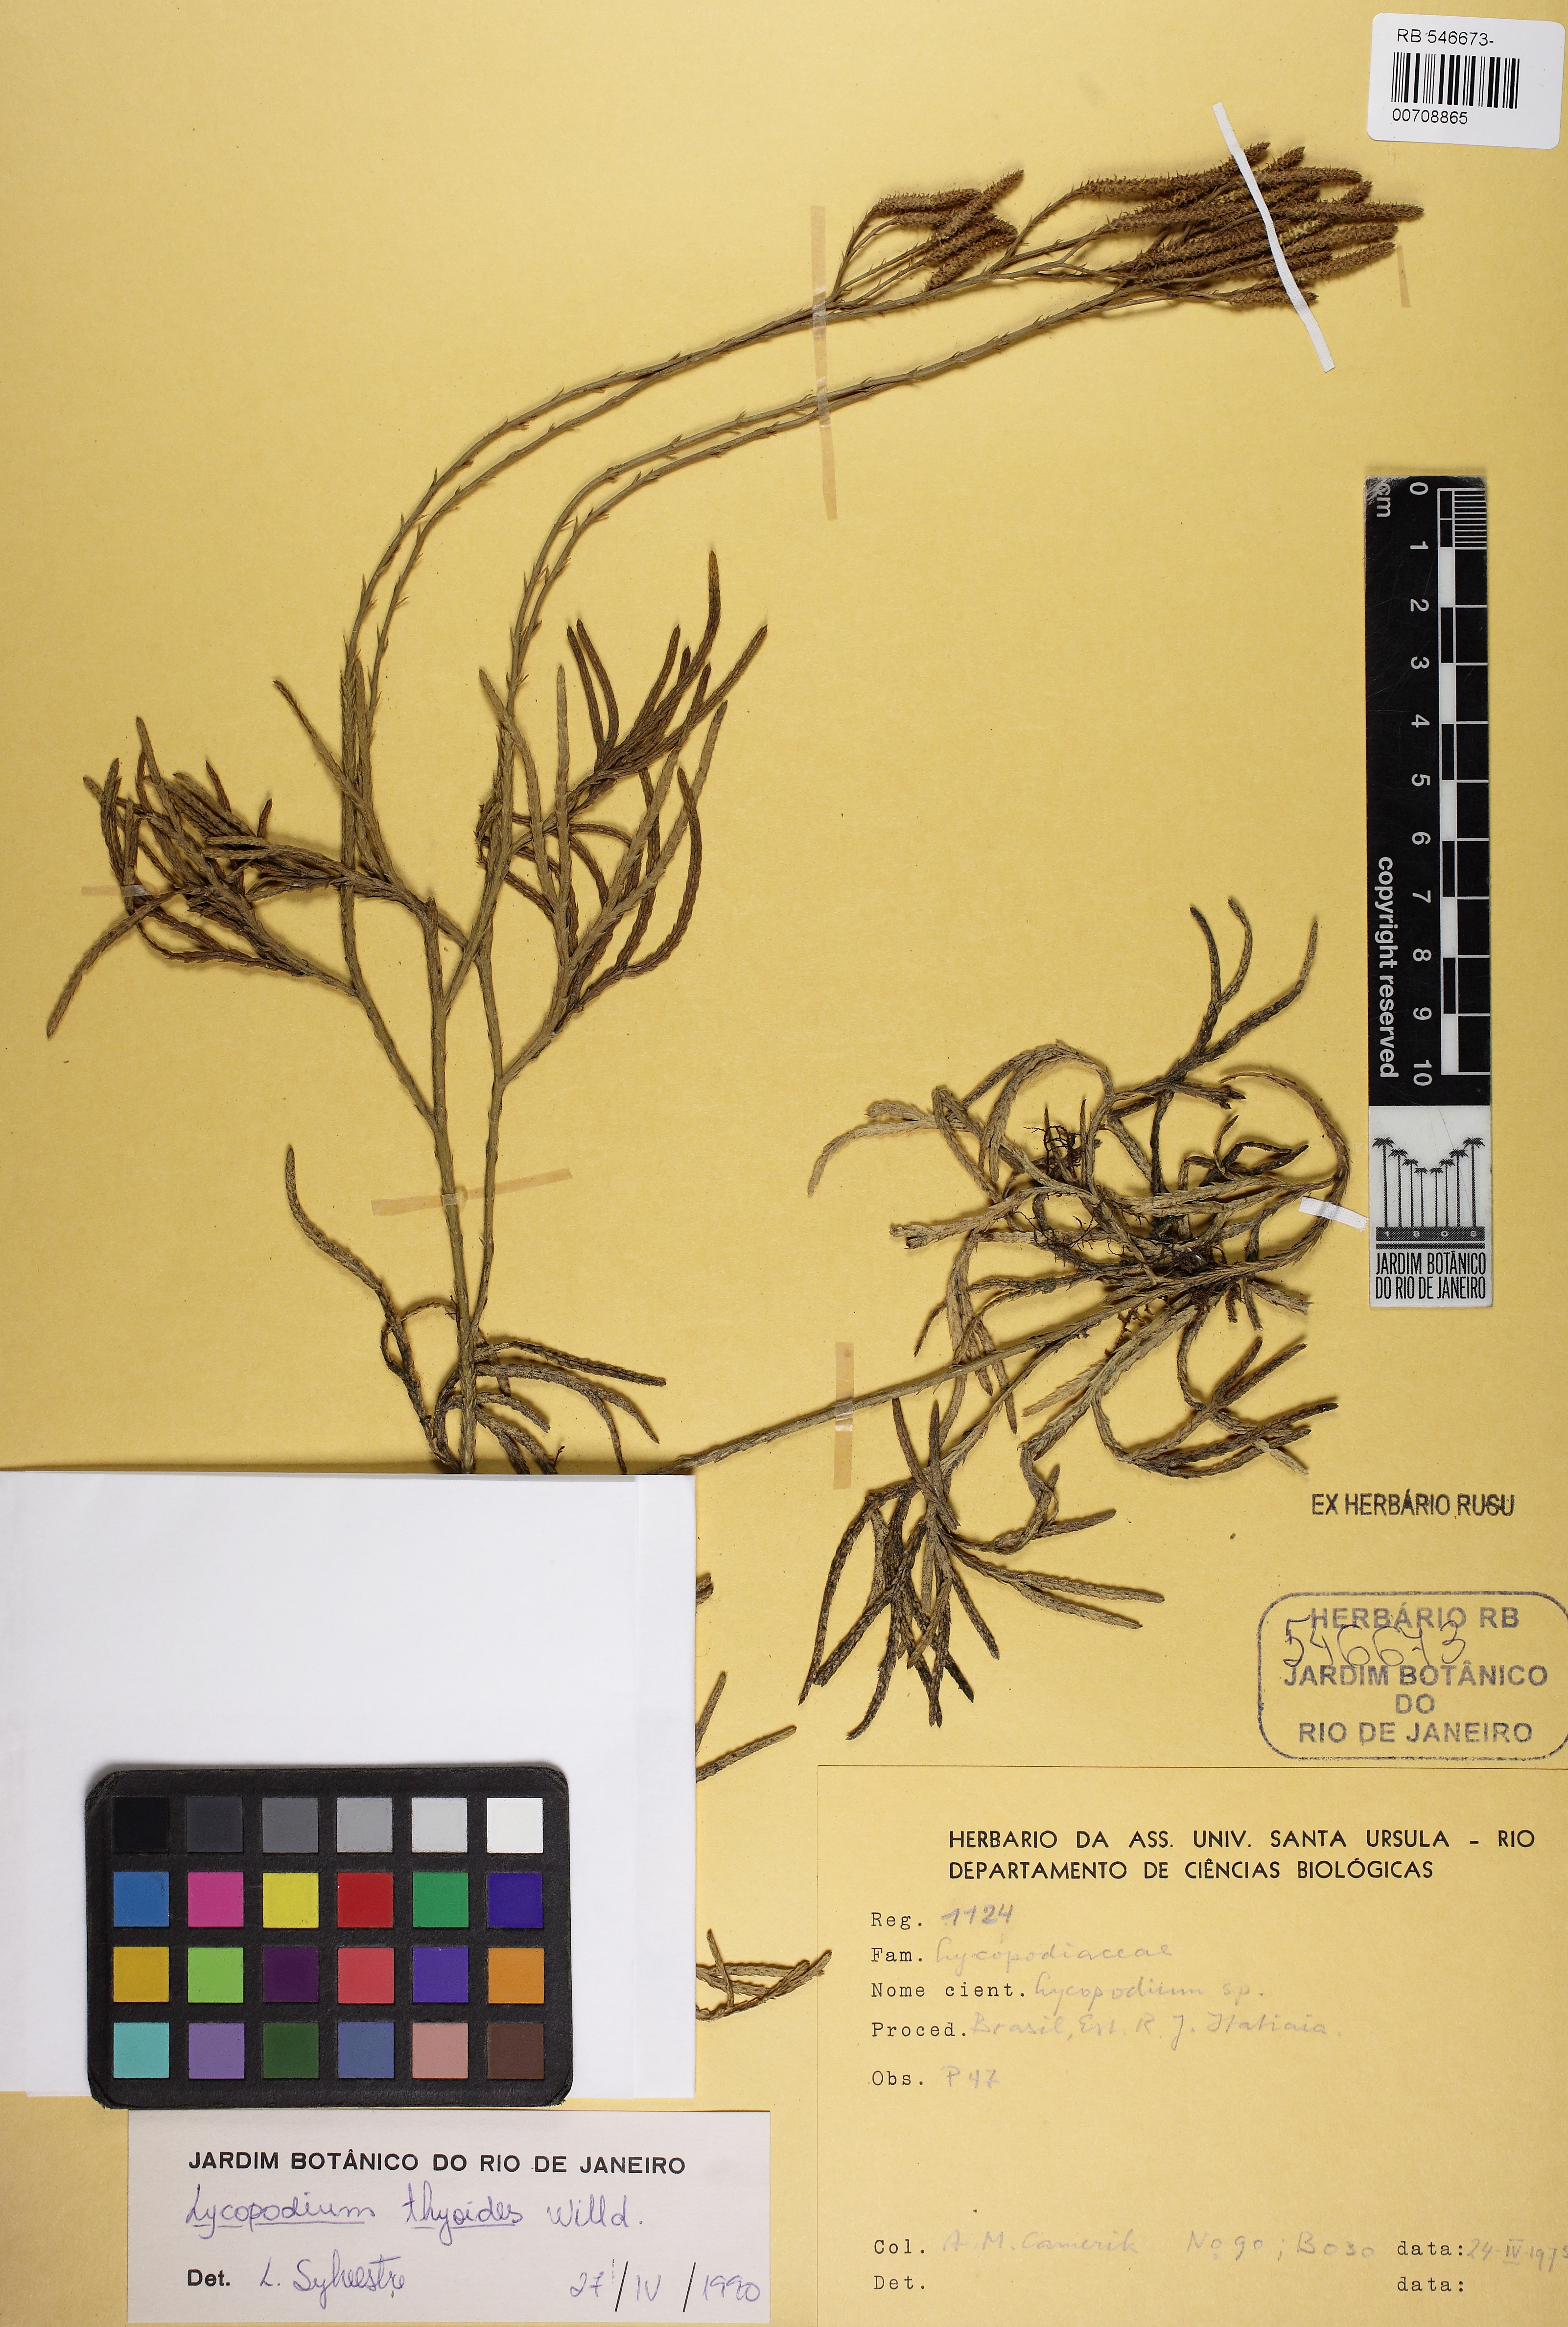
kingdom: Plantae
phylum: Tracheophyta
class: Lycopodiopsida
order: Lycopodiales
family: Lycopodiaceae
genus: Diphasiastrum
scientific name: Diphasiastrum thyoides
